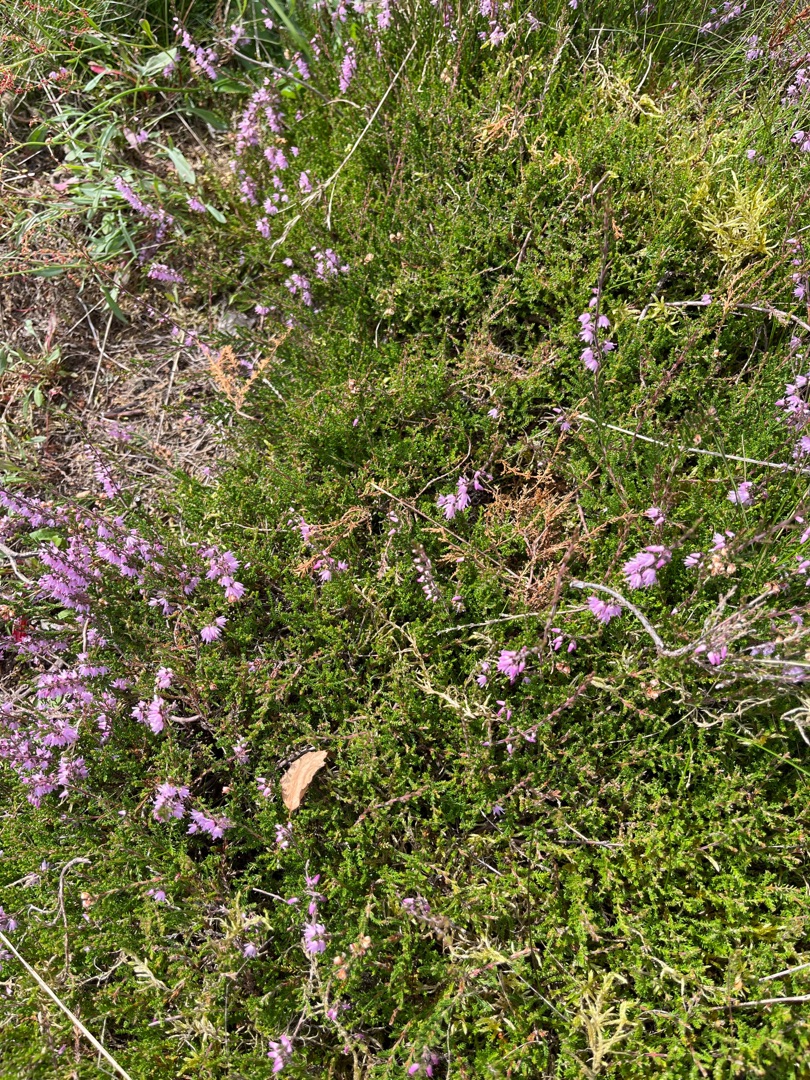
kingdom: Plantae
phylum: Tracheophyta
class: Magnoliopsida
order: Ericales
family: Ericaceae
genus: Calluna
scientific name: Calluna vulgaris
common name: Hedelyng
